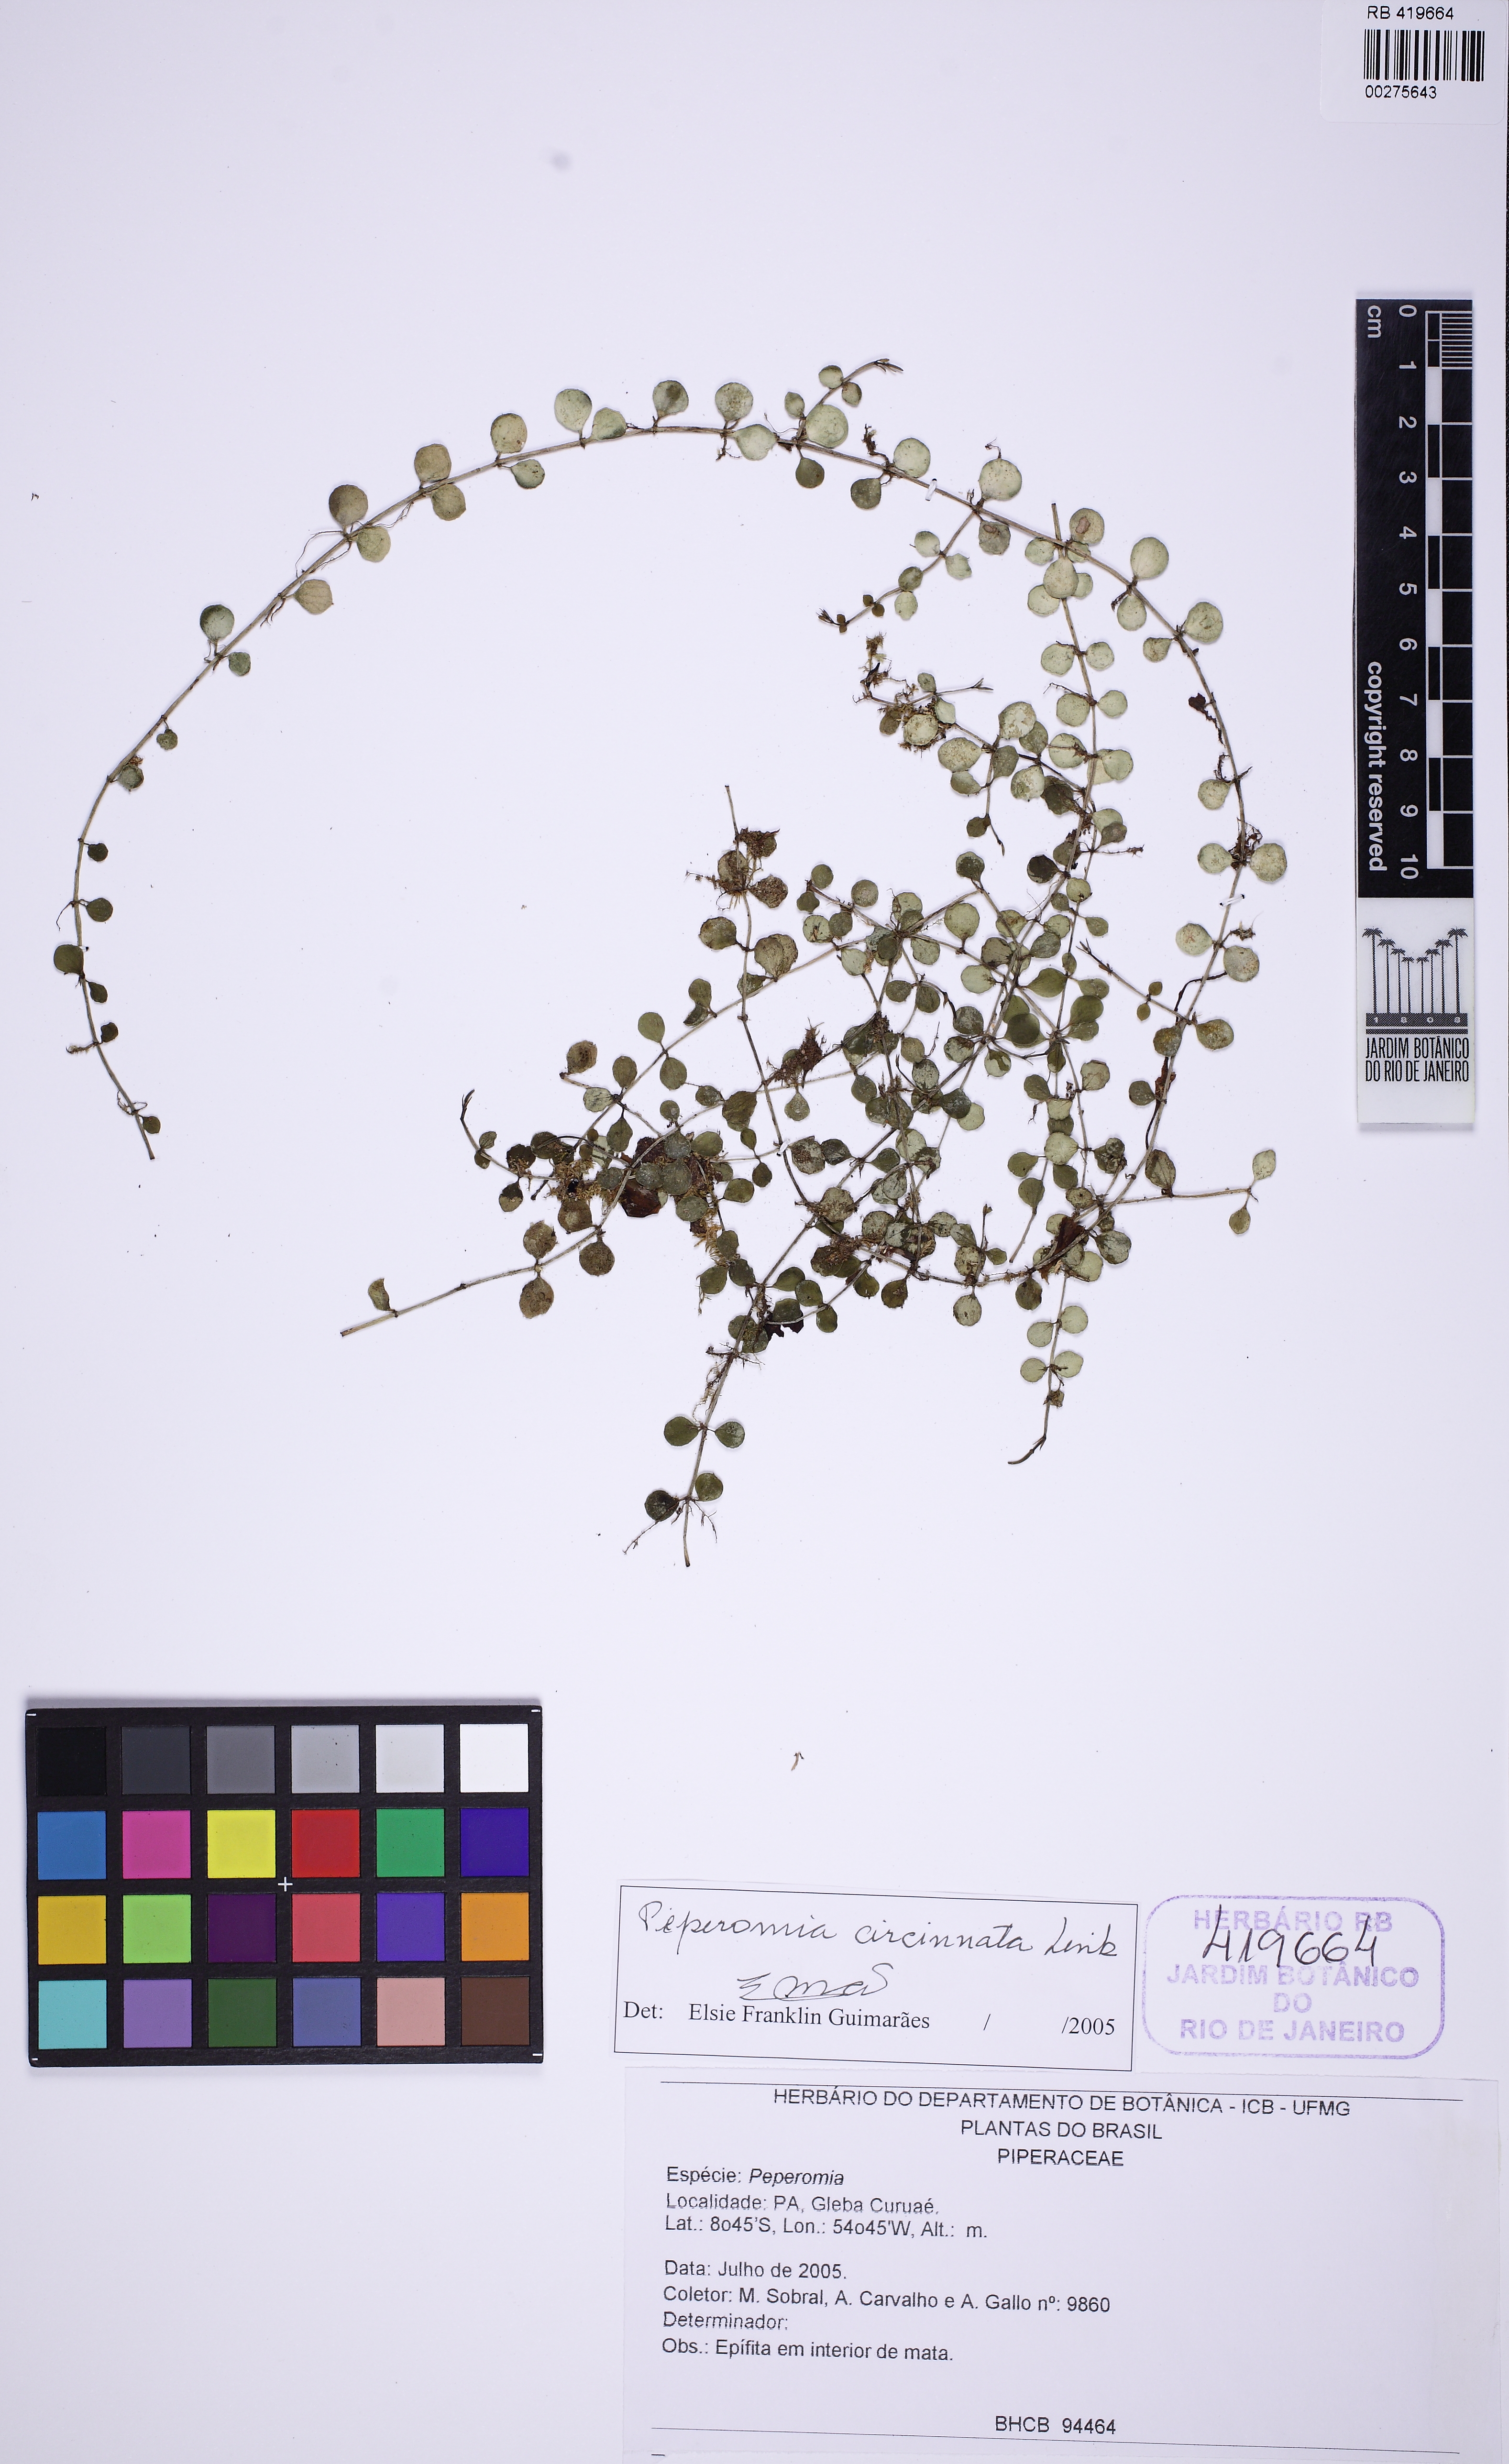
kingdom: Plantae
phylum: Tracheophyta
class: Magnoliopsida
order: Piperales
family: Piperaceae
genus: Peperomia
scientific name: Peperomia circinnata
